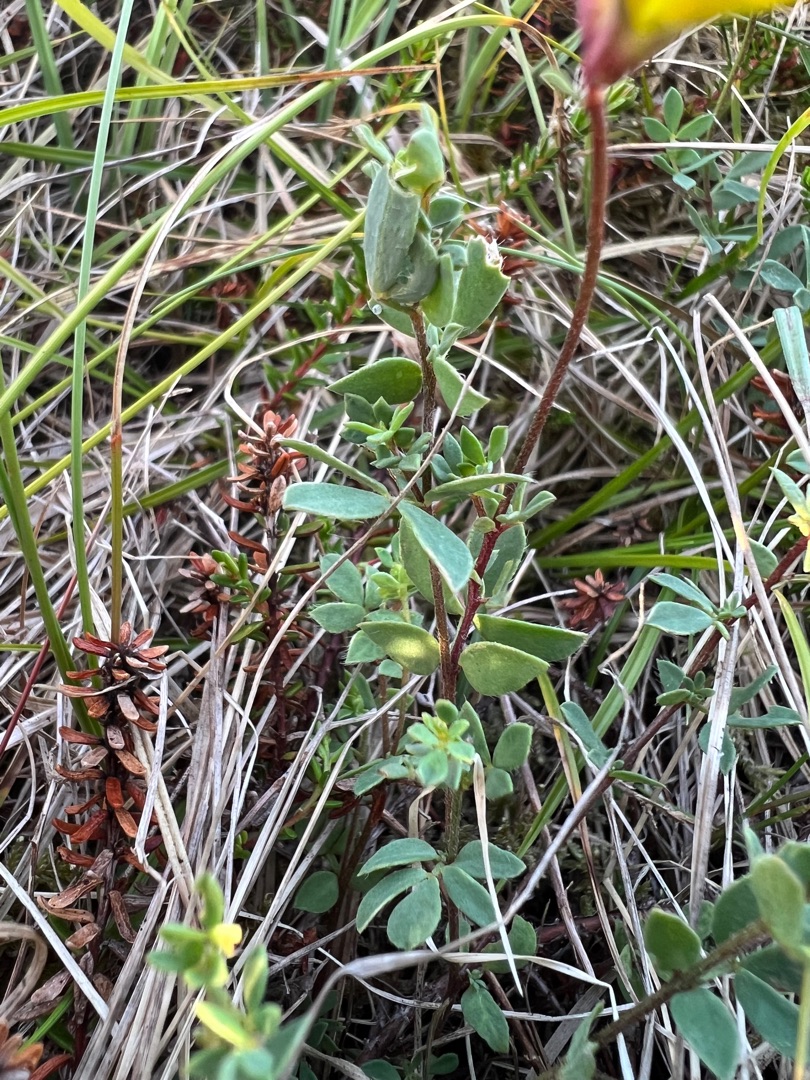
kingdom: Plantae
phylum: Tracheophyta
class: Magnoliopsida
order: Fabales
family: Fabaceae
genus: Lotus
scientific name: Lotus corniculatus
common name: Almindelig kællingetand
